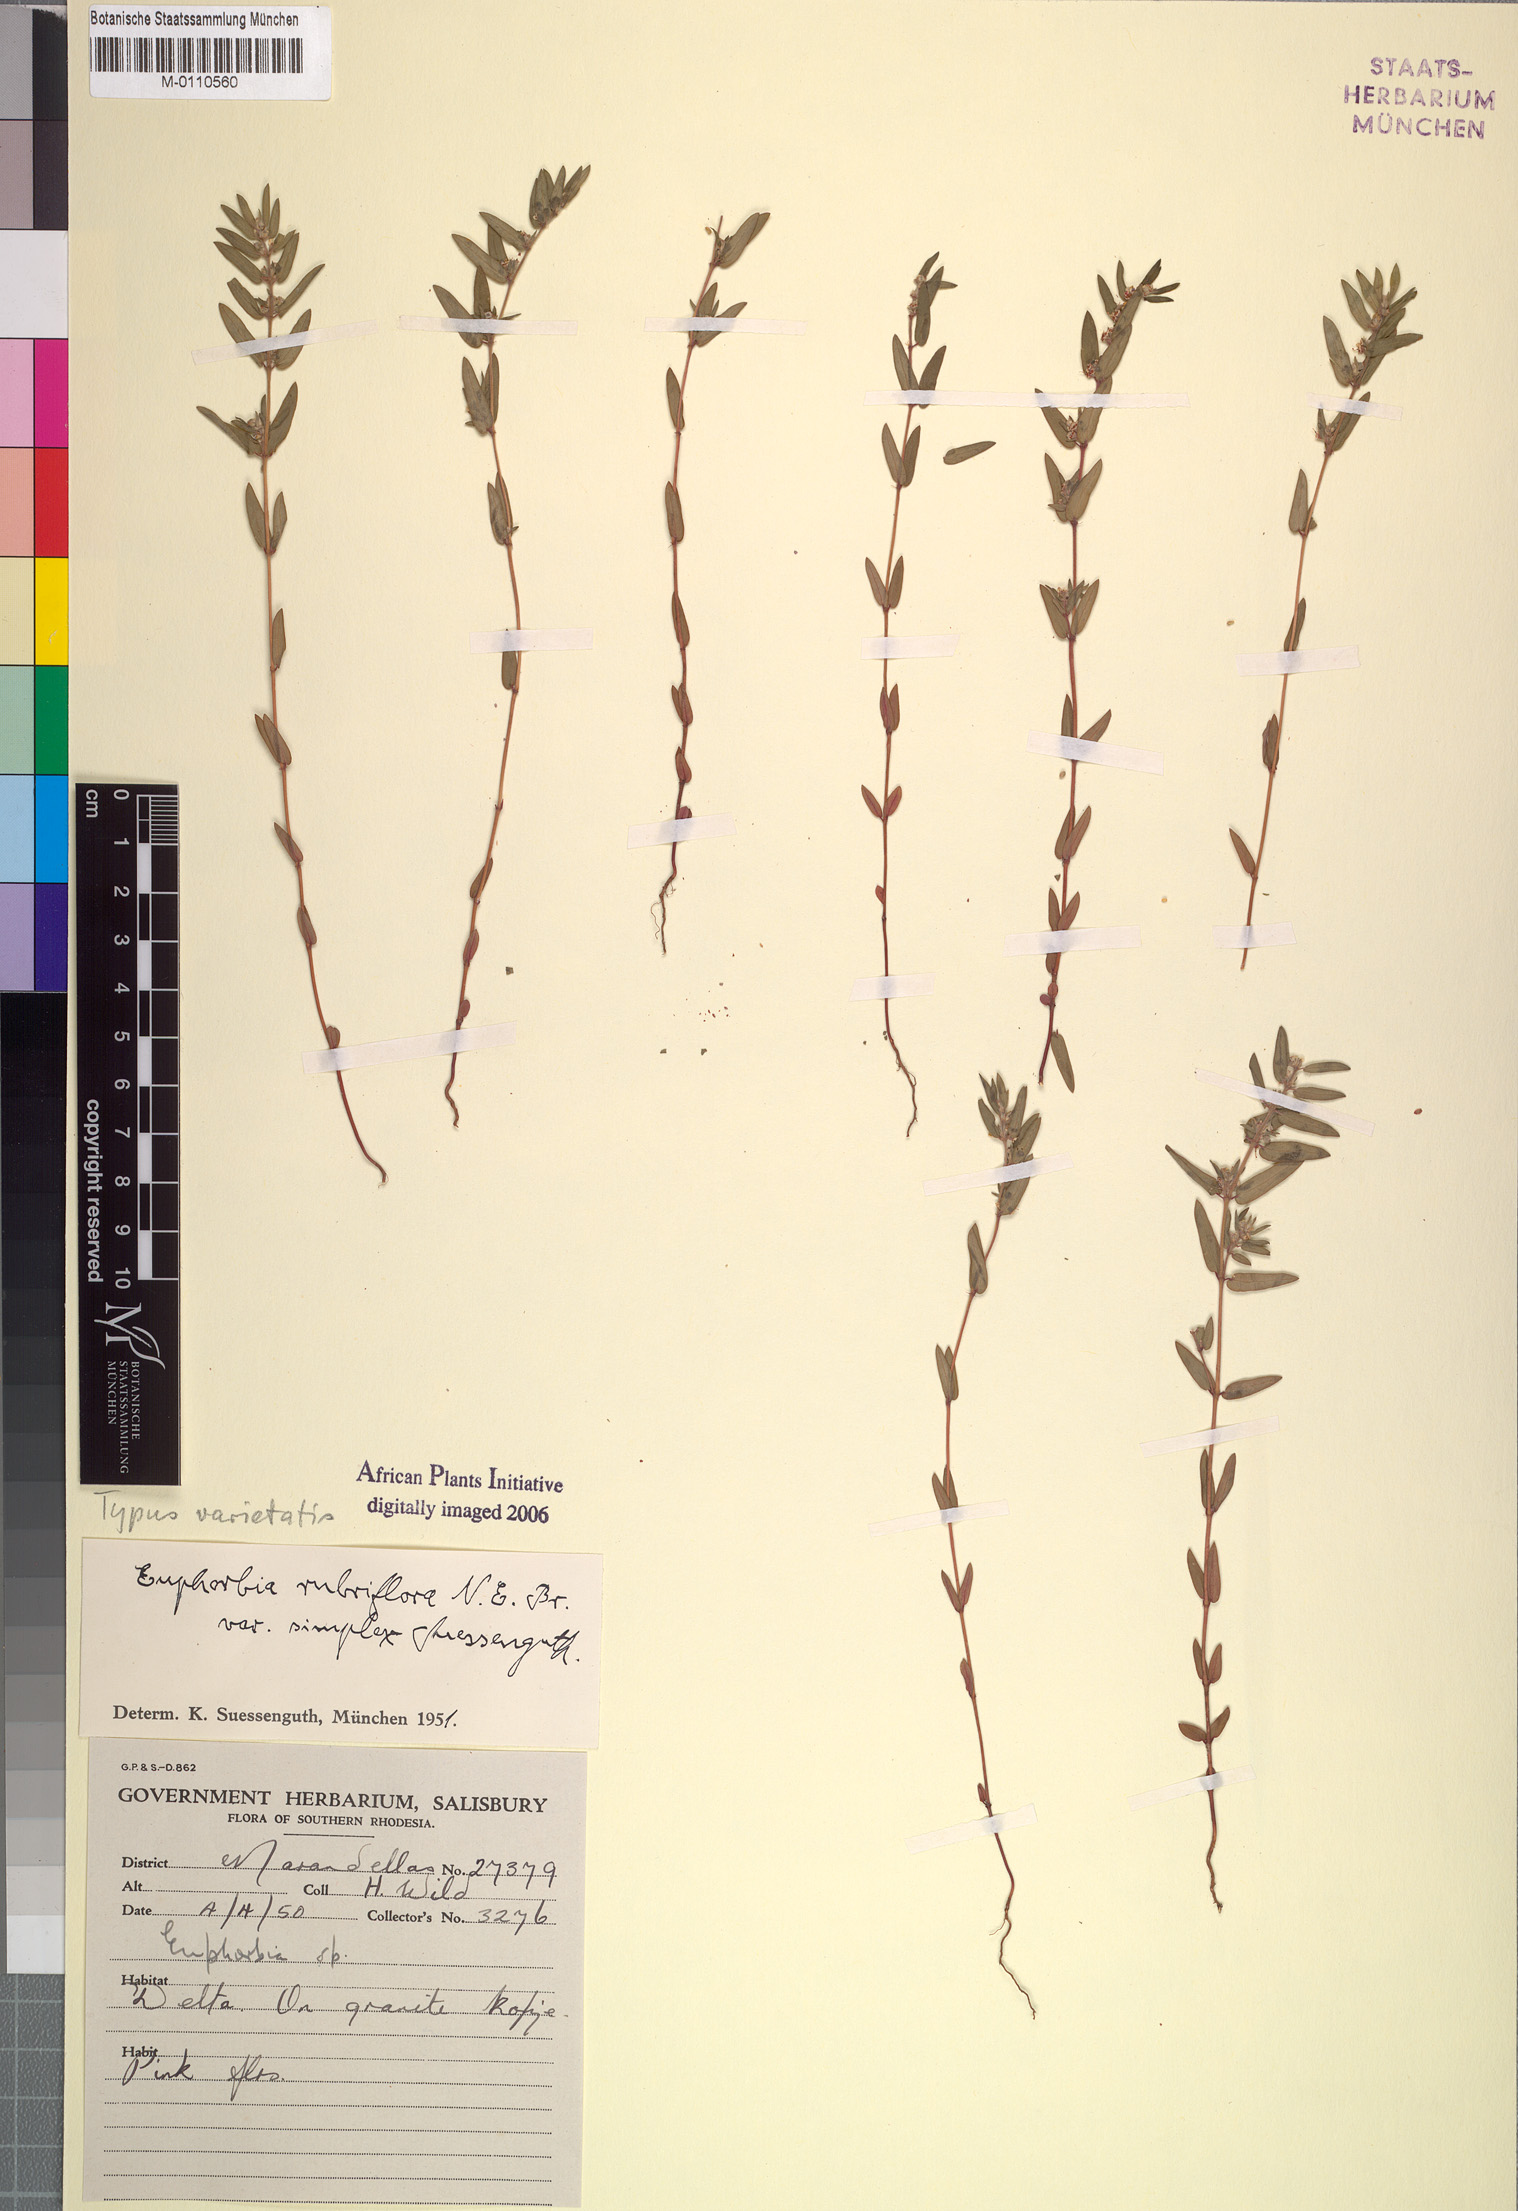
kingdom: Plantae
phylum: Tracheophyta
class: Magnoliopsida
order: Malpighiales
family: Euphorbiaceae
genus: Euphorbia
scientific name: Euphorbia rubriflora
